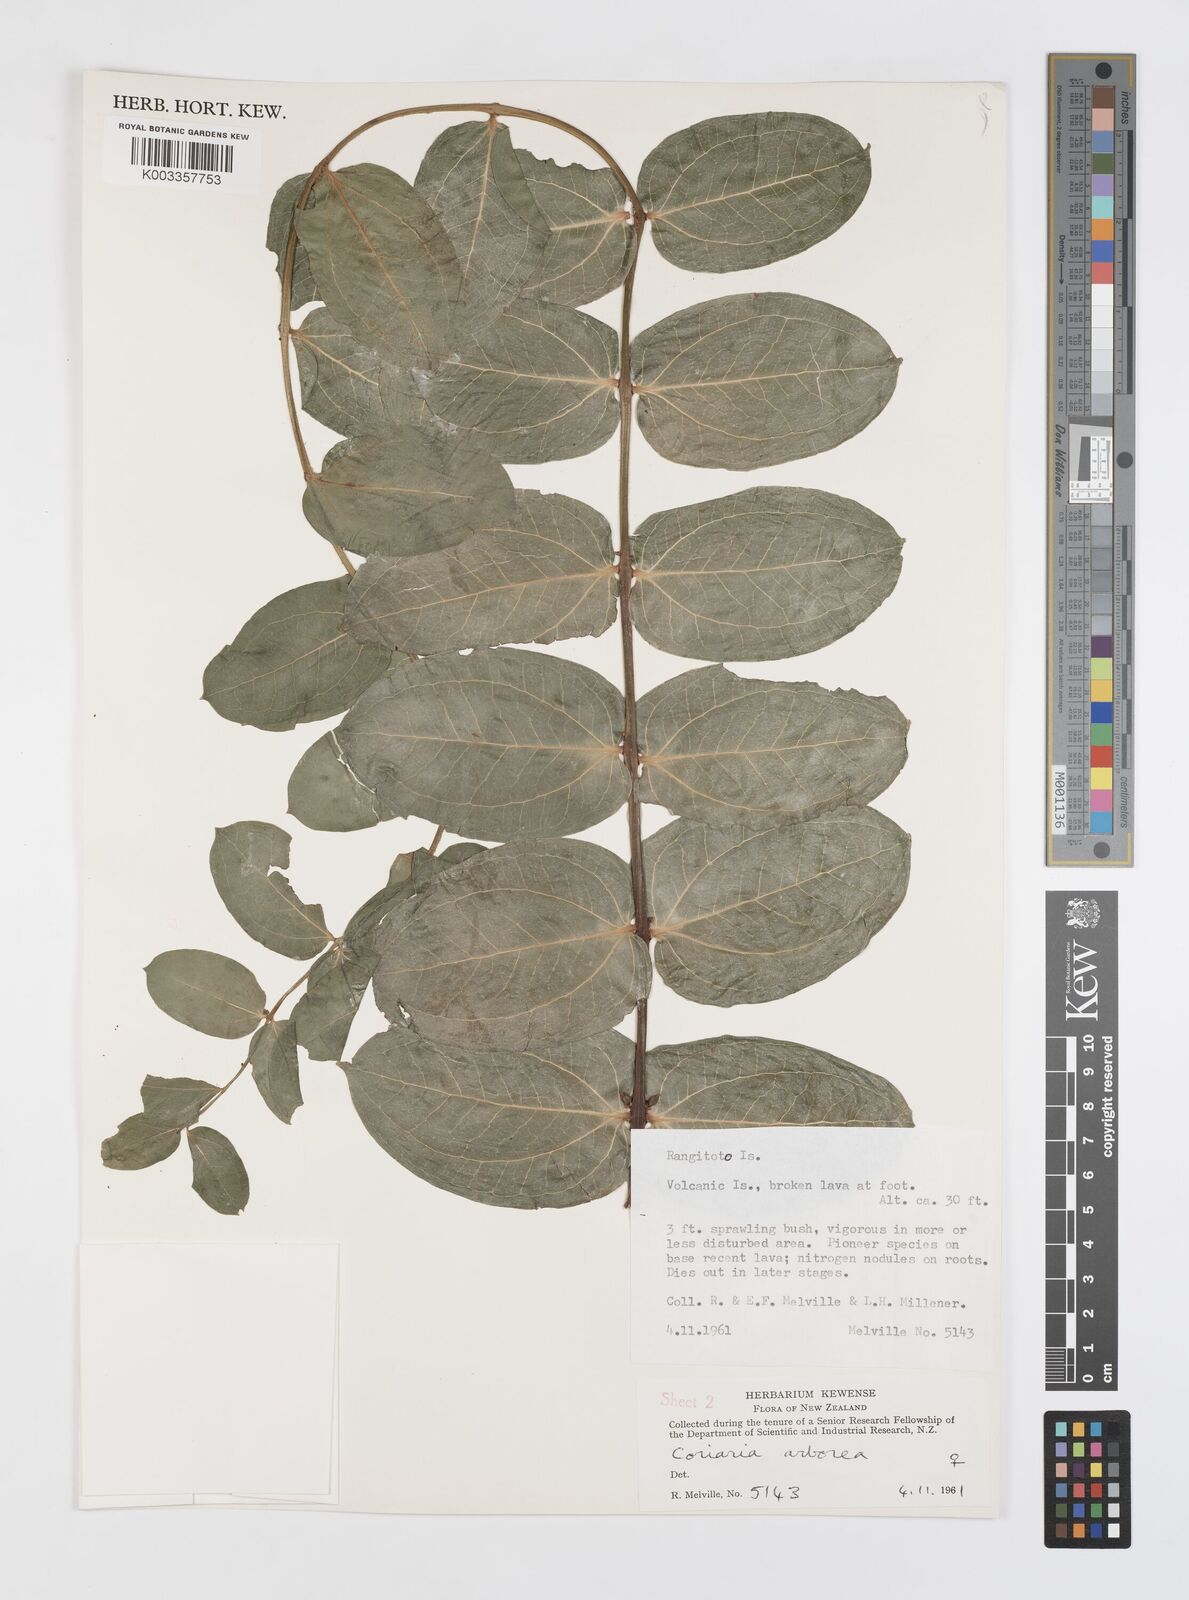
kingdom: Plantae
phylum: Tracheophyta
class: Magnoliopsida
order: Cucurbitales
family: Coriariaceae
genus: Coriaria
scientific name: Coriaria arborea
